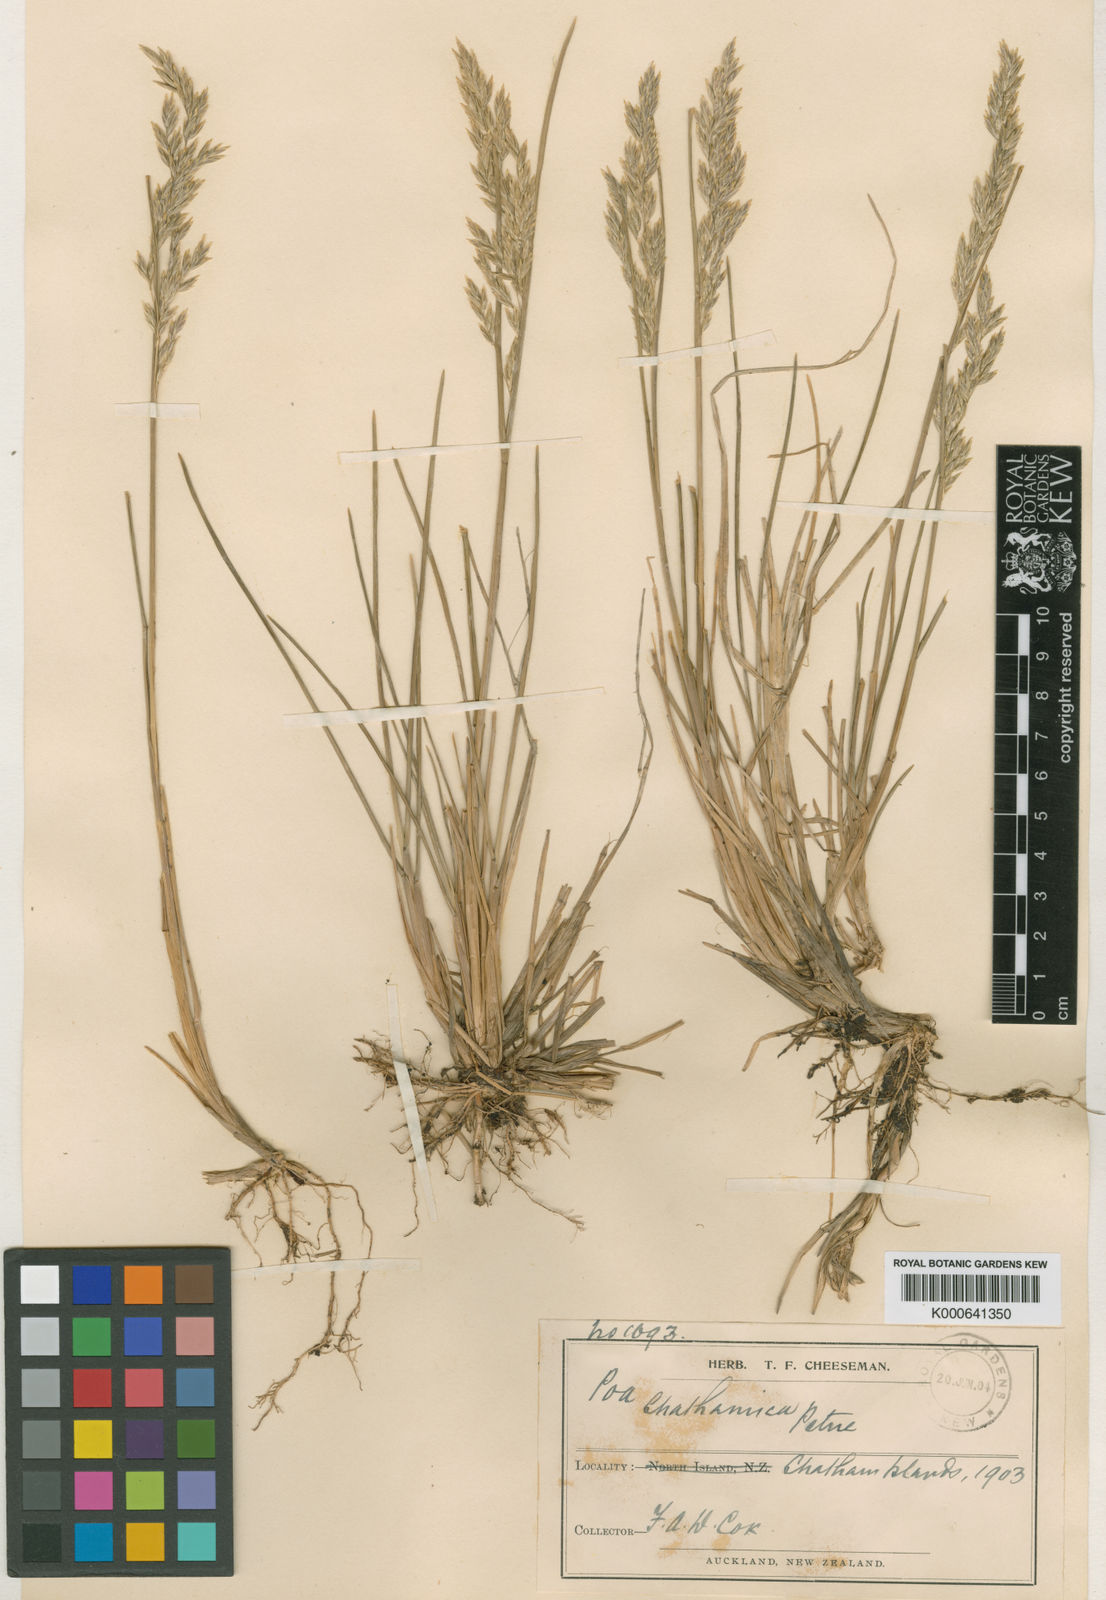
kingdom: Plantae
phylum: Tracheophyta
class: Liliopsida
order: Poales
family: Poaceae
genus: Poa
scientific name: Poa chathamica
